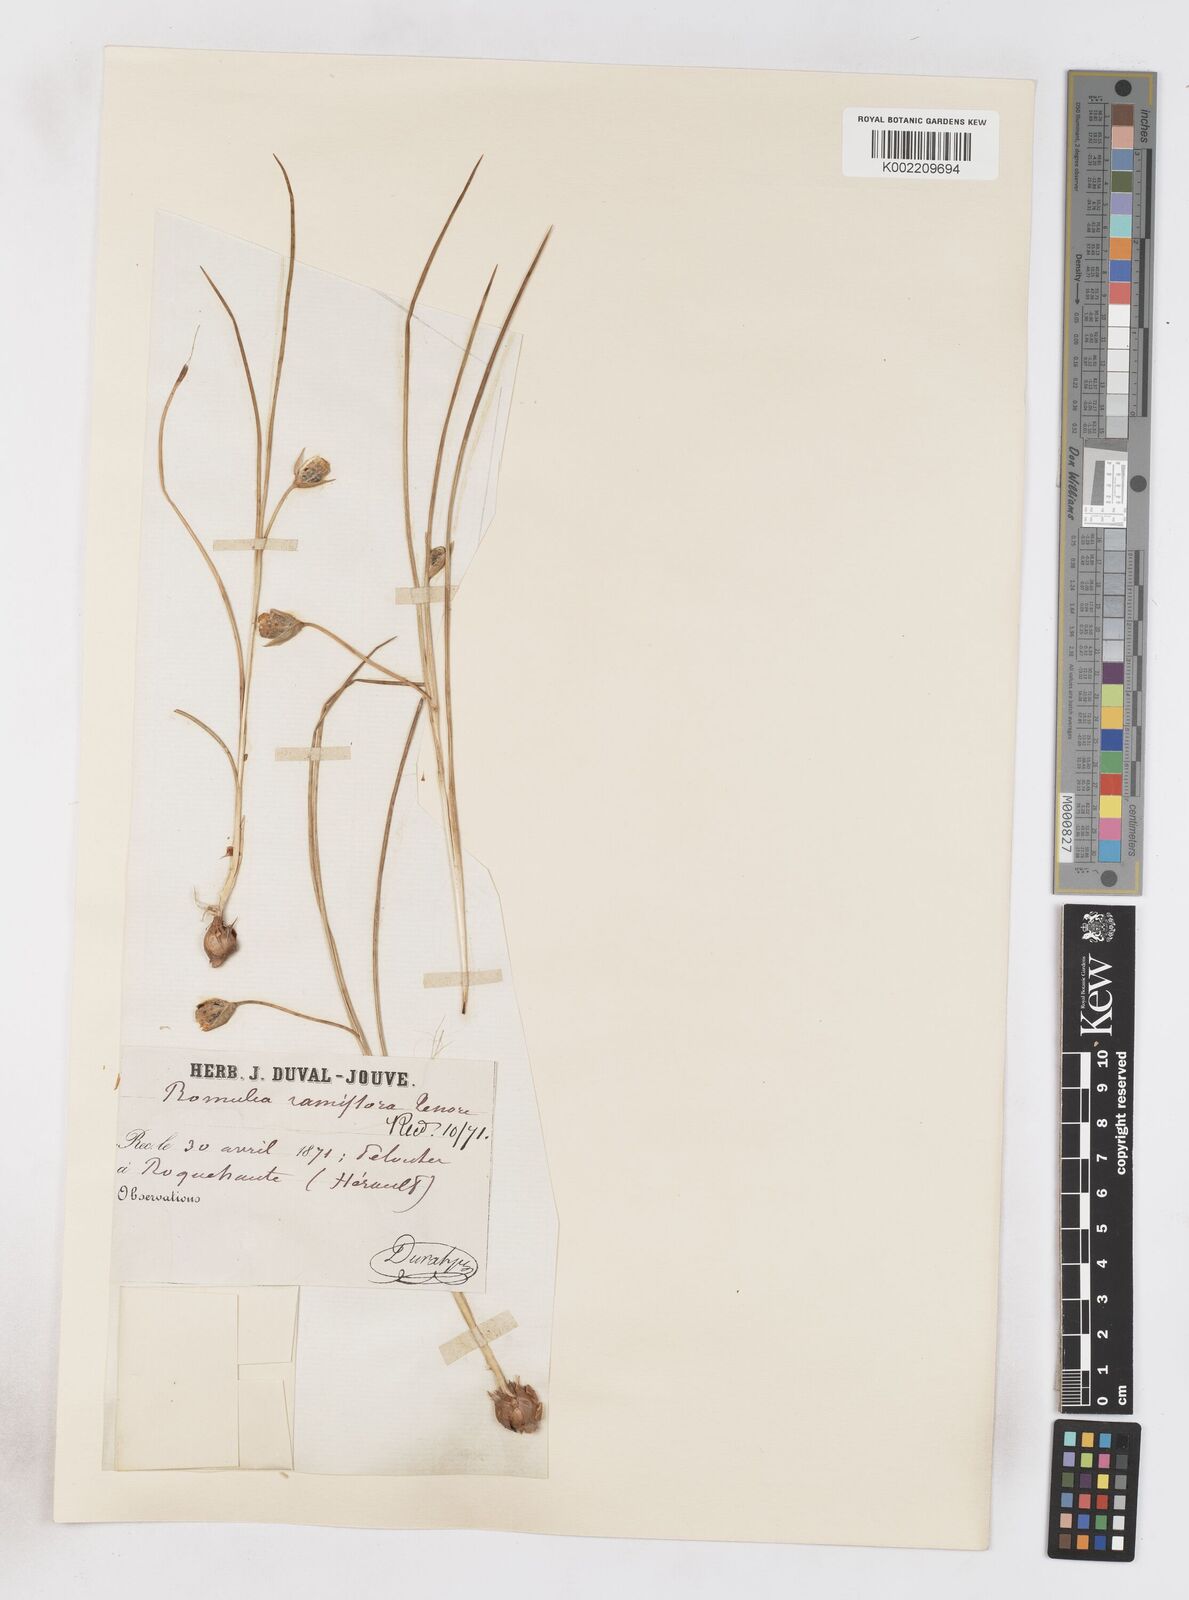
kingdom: Plantae
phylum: Tracheophyta
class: Liliopsida
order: Asparagales
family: Iridaceae
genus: Romulea
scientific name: Romulea ramiflora
